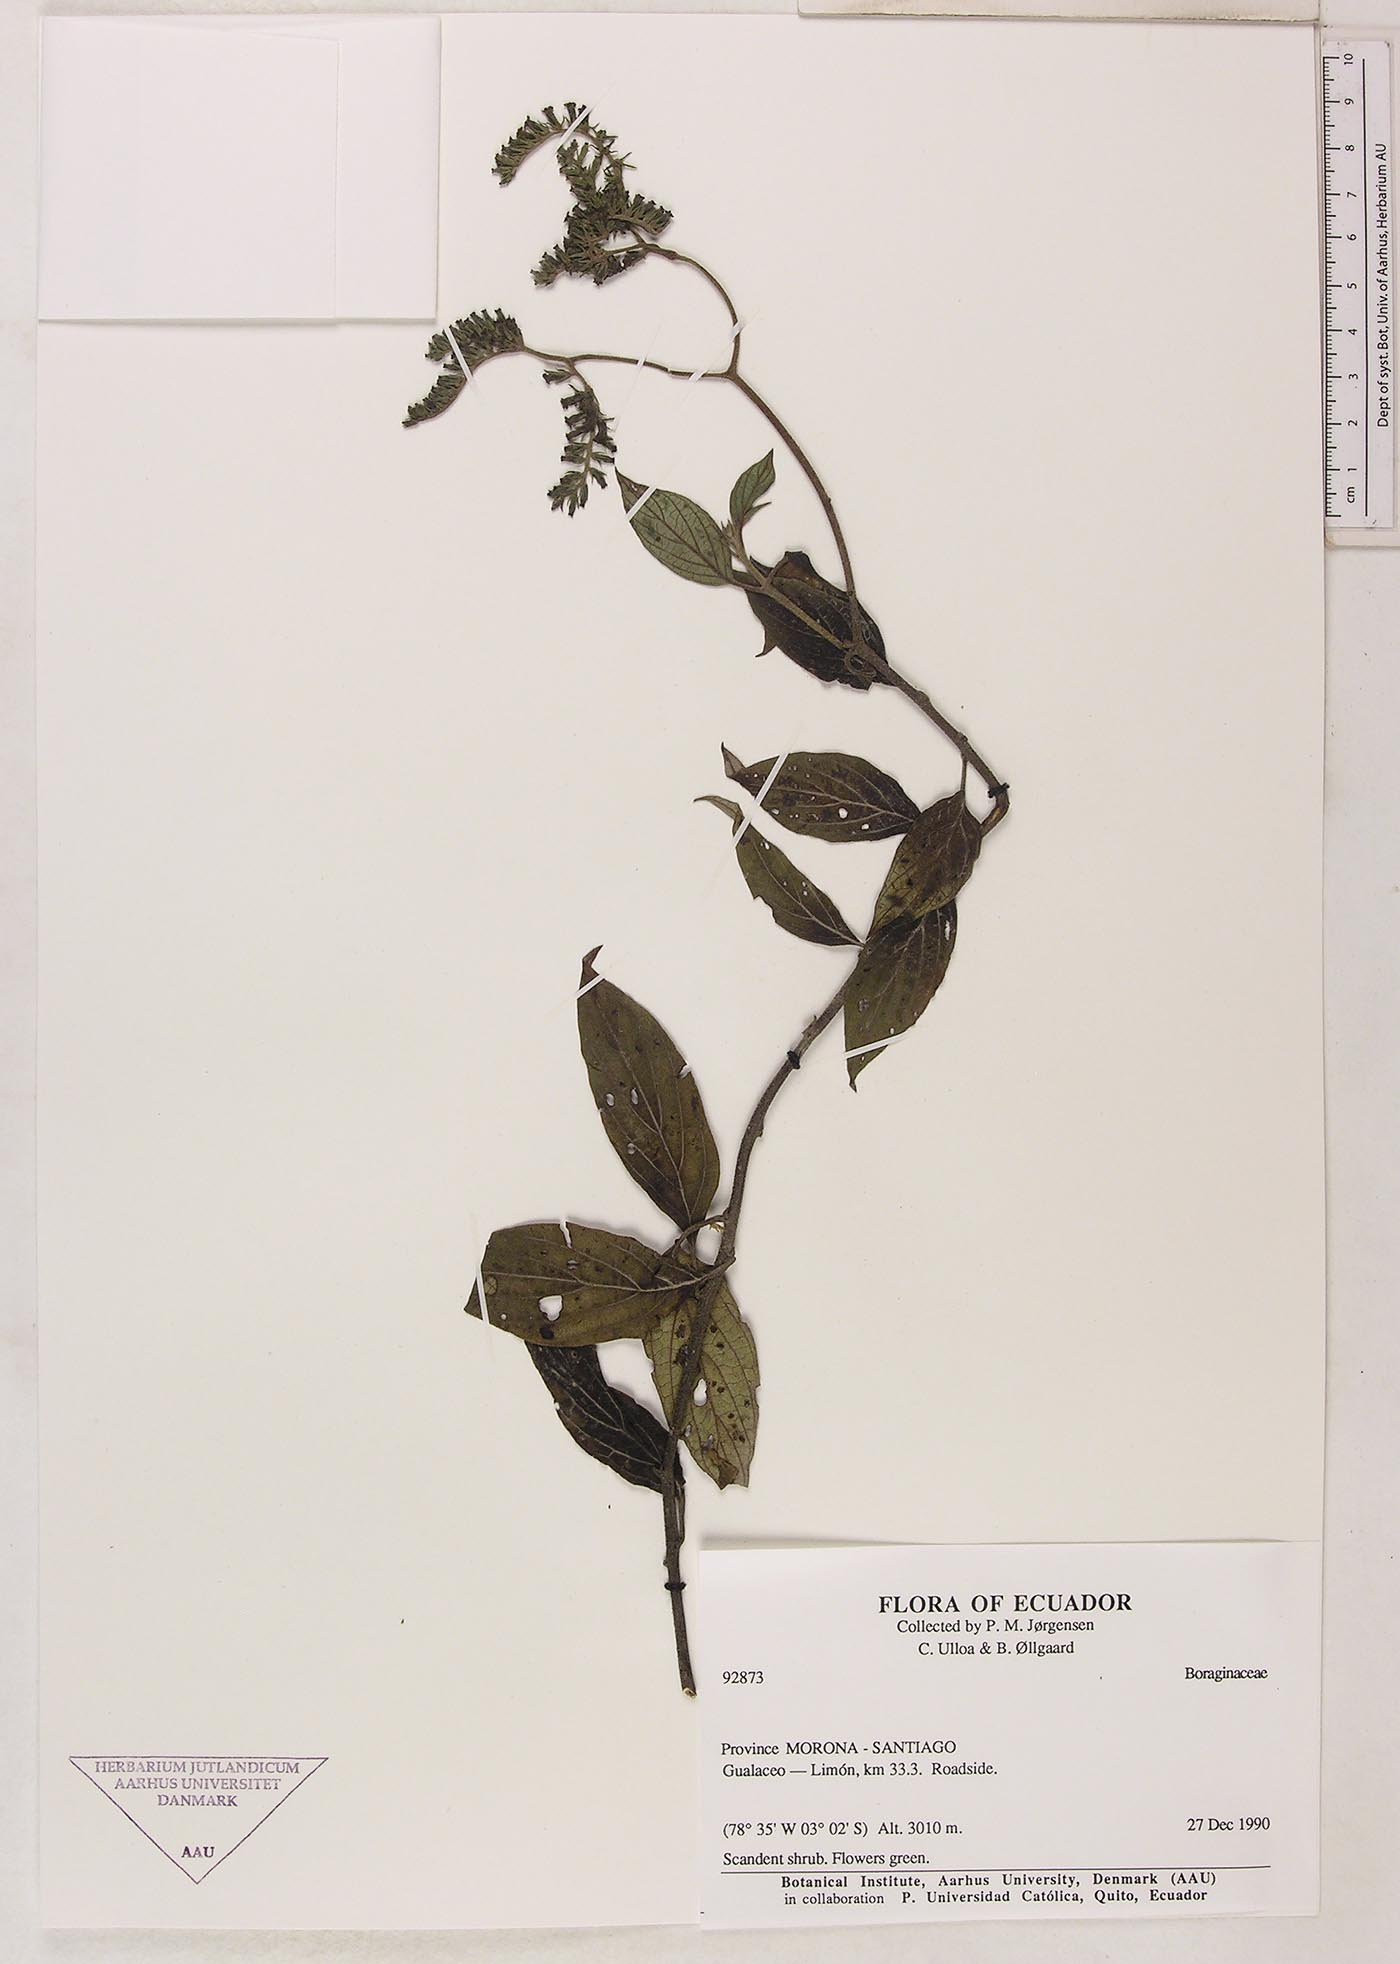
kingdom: Plantae
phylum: Tracheophyta
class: Magnoliopsida
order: Boraginales
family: Heliotropiaceae
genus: Tournefortia
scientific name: Tournefortia chinchensis
